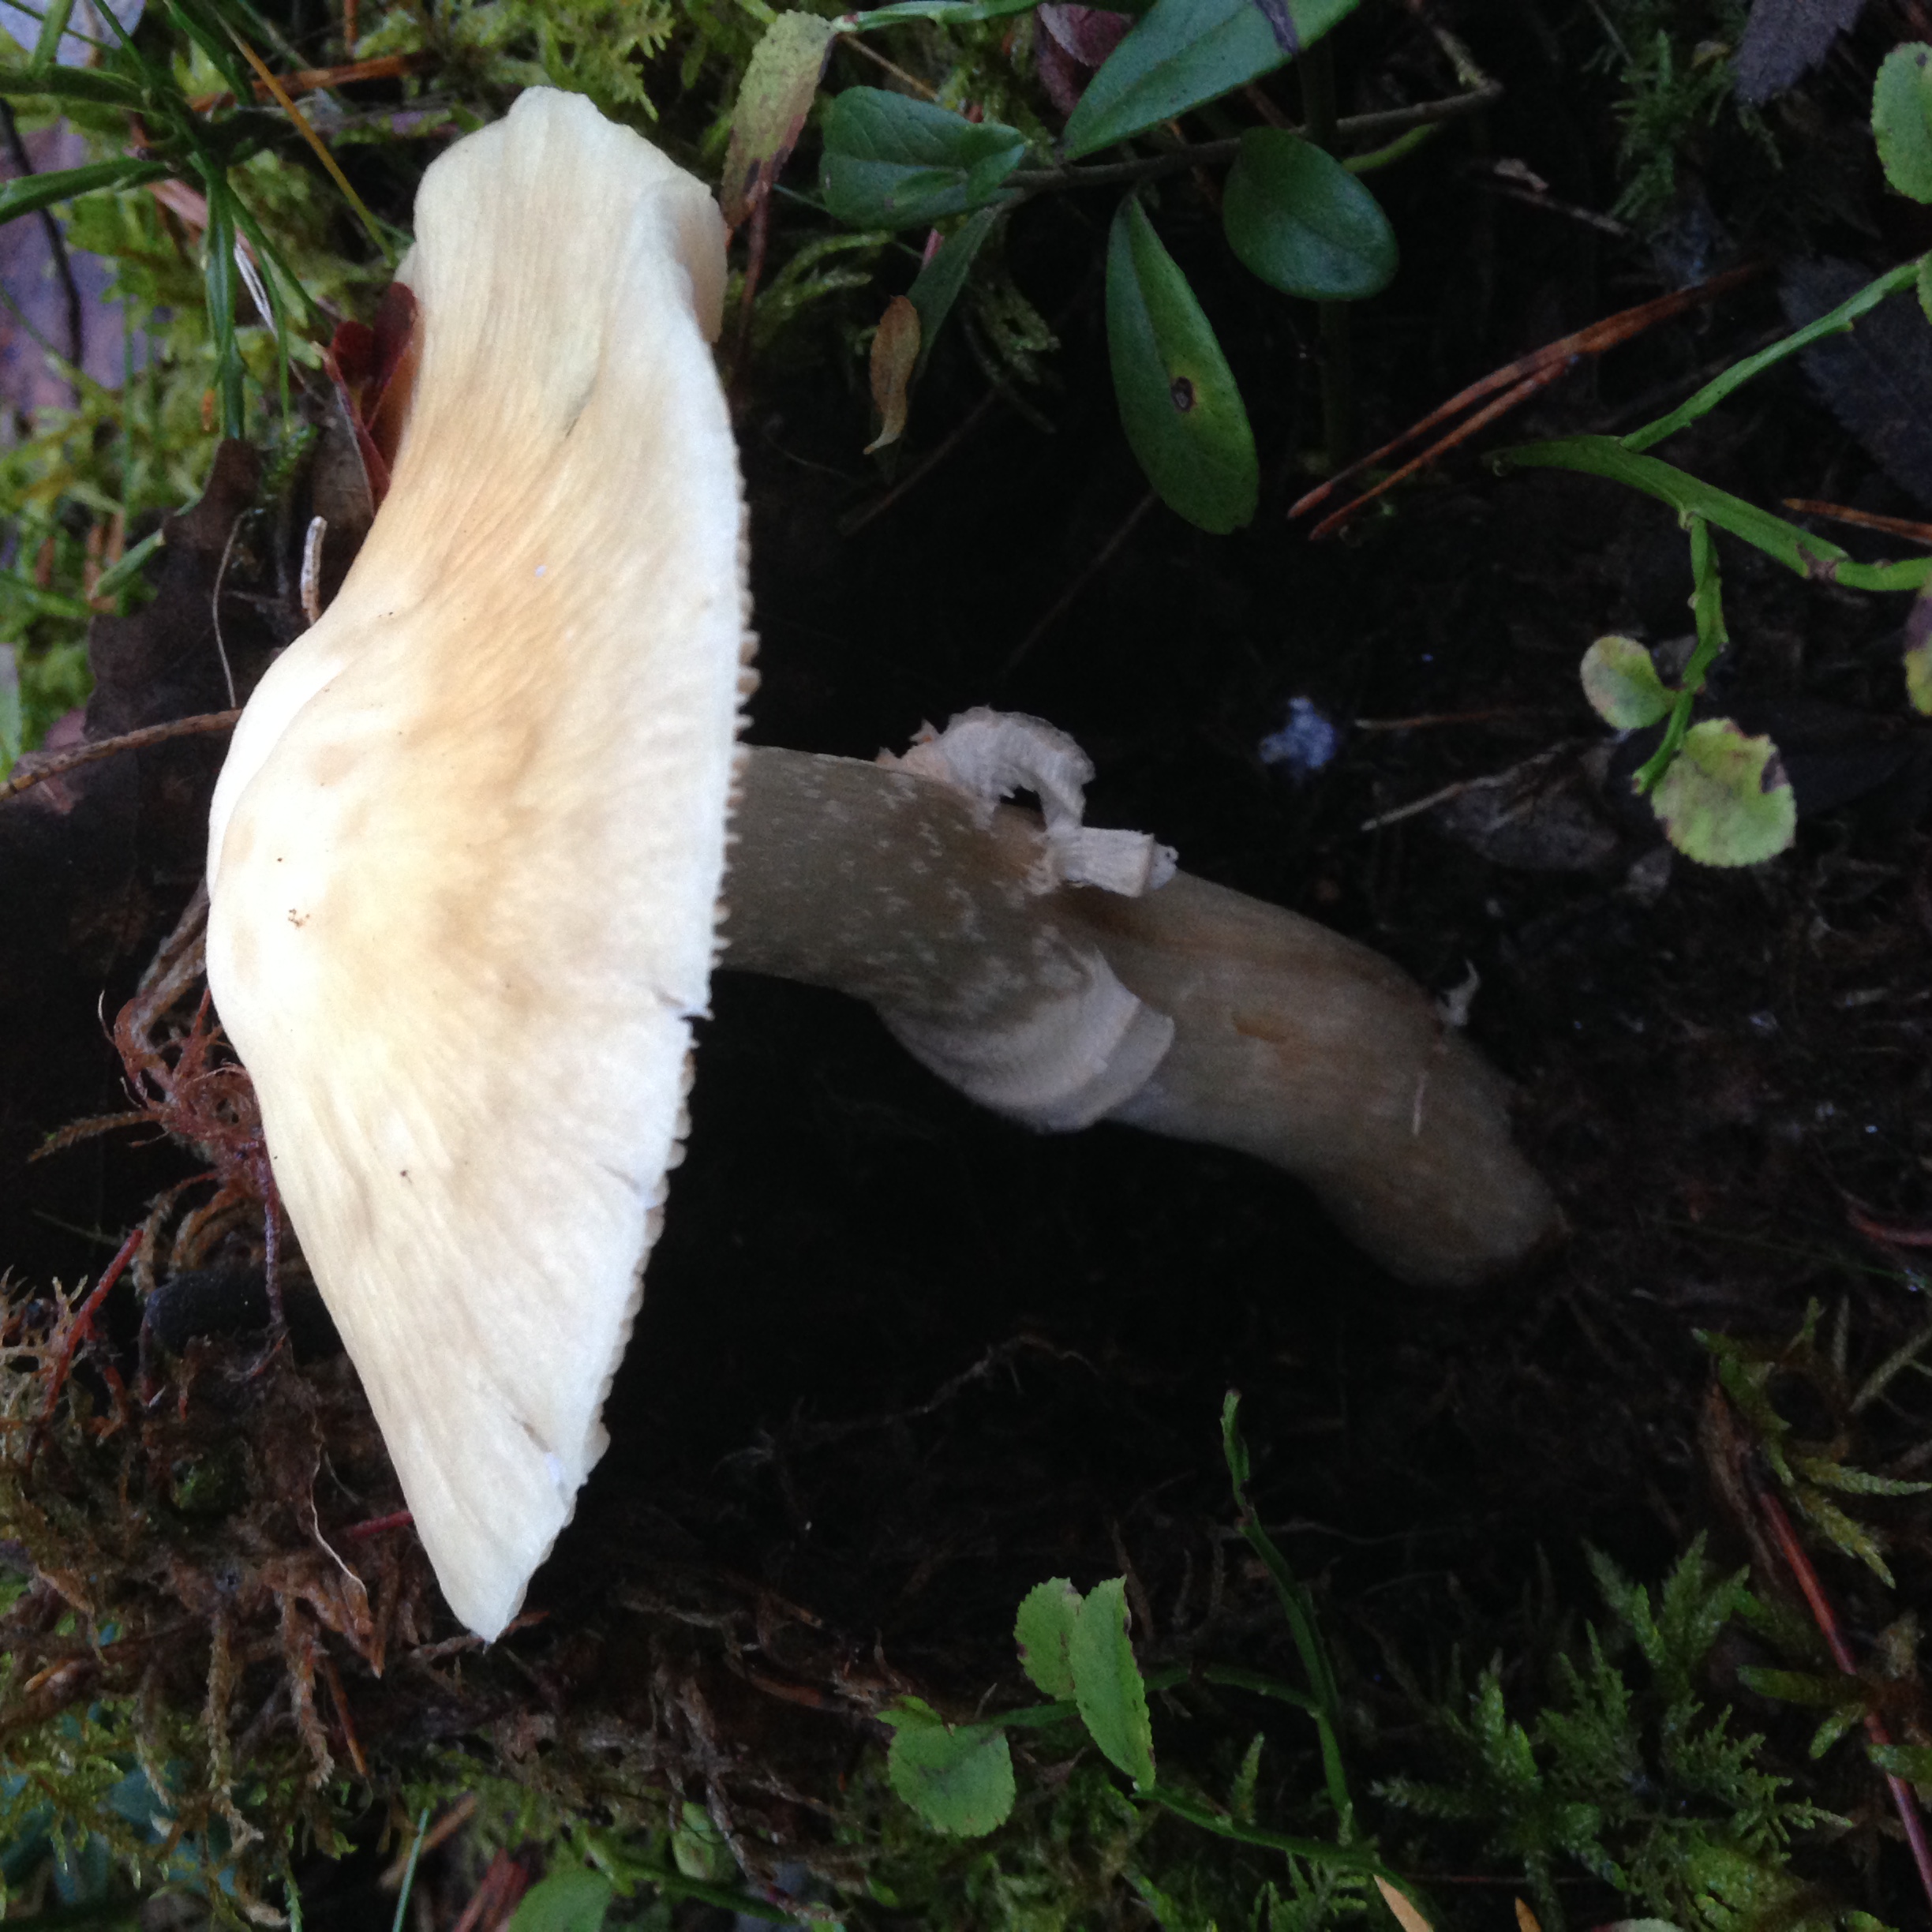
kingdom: Fungi
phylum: Basidiomycota
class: Agaricomycetes
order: Agaricales
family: Cortinariaceae
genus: Cortinarius
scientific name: Cortinarius caperatus
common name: The gypsy
